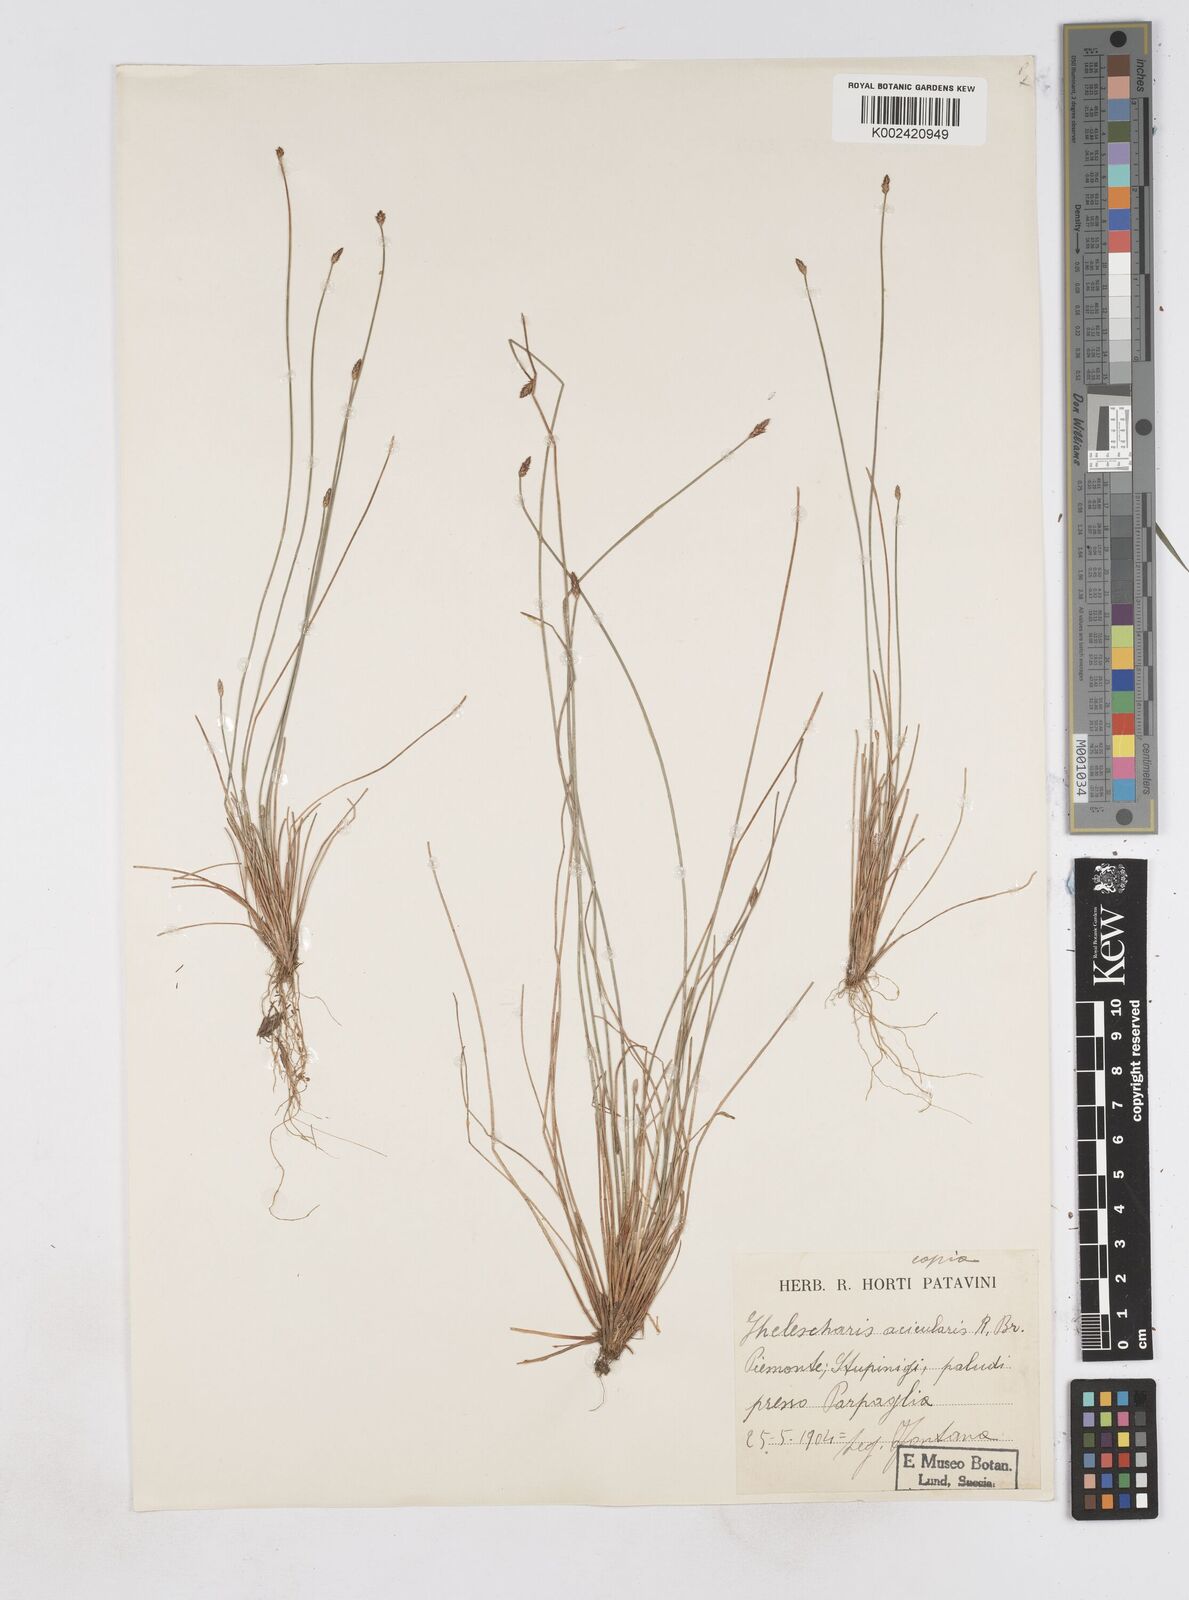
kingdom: Plantae
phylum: Tracheophyta
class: Liliopsida
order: Poales
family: Cyperaceae
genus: Eleocharis
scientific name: Eleocharis acicularis
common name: Needle spike-rush
